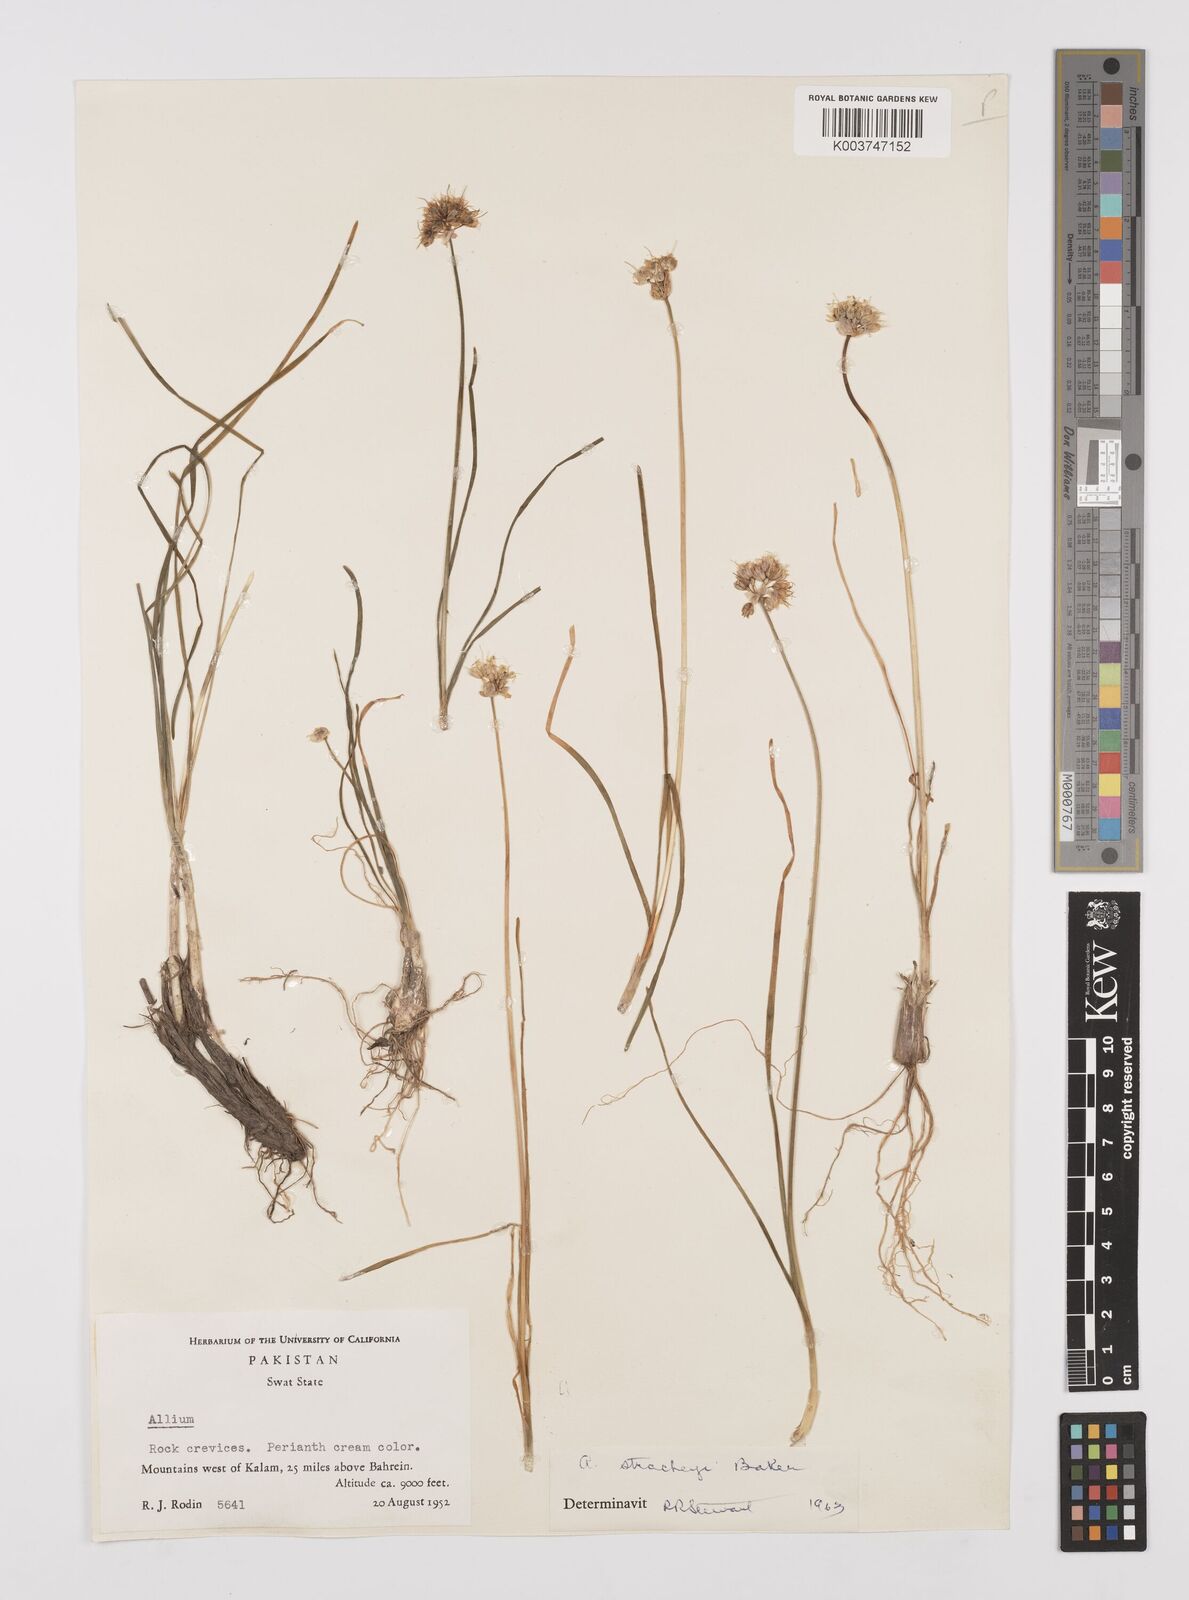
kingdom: Plantae
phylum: Tracheophyta
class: Liliopsida
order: Asparagales
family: Amaryllidaceae
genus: Allium
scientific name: Allium stracheyi
